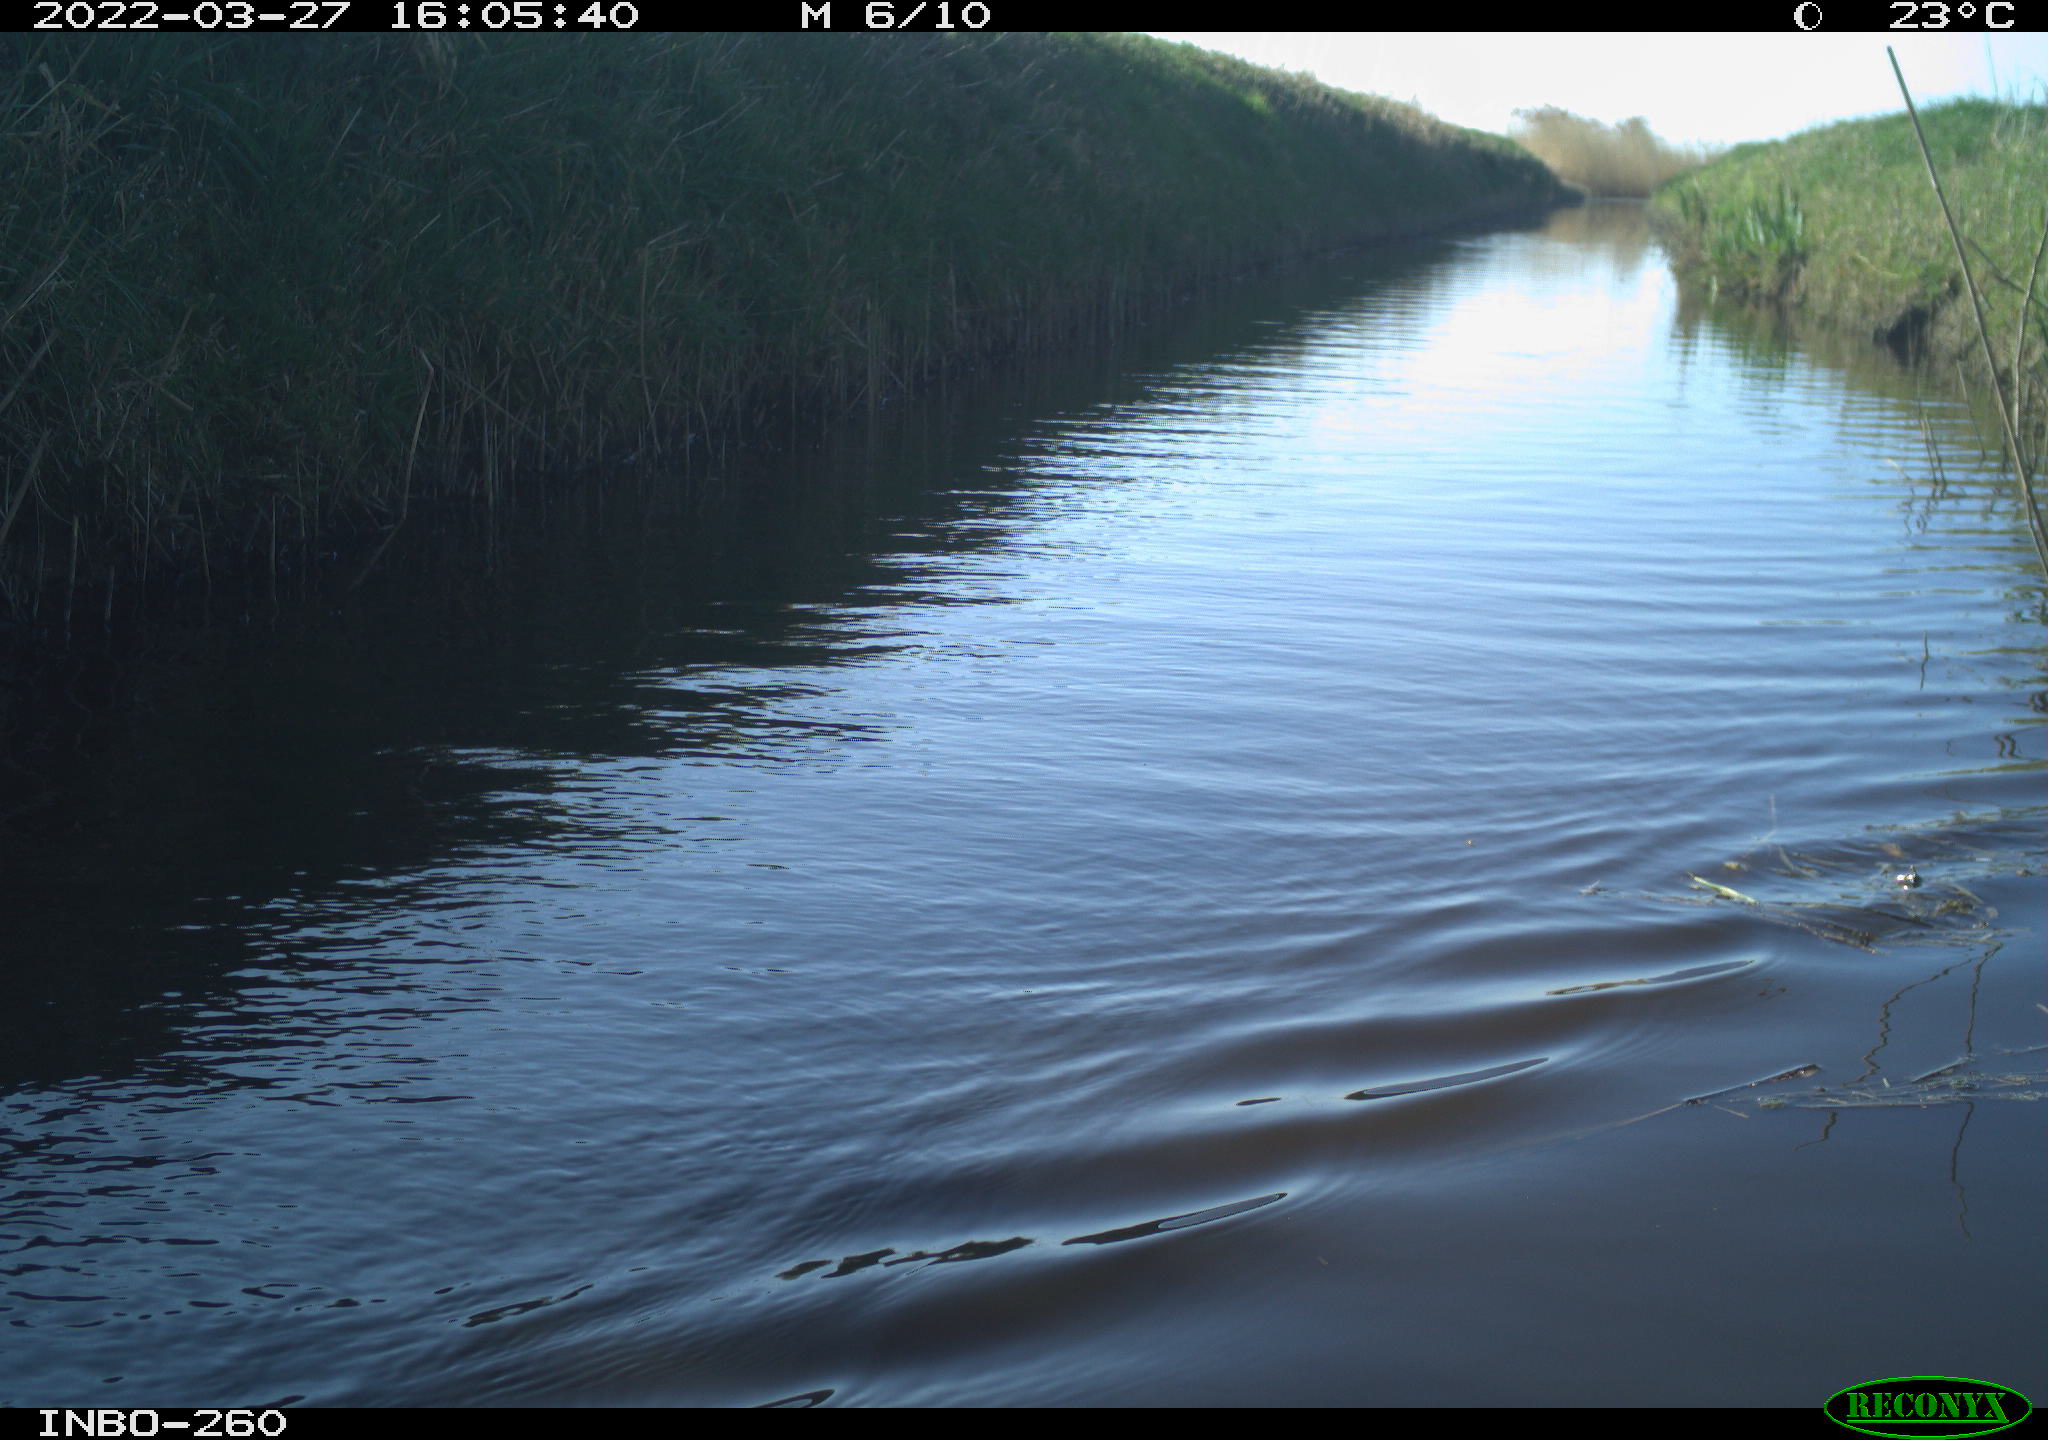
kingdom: Animalia
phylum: Chordata
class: Aves
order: Gruiformes
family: Rallidae
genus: Fulica
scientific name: Fulica atra
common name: Eurasian coot
